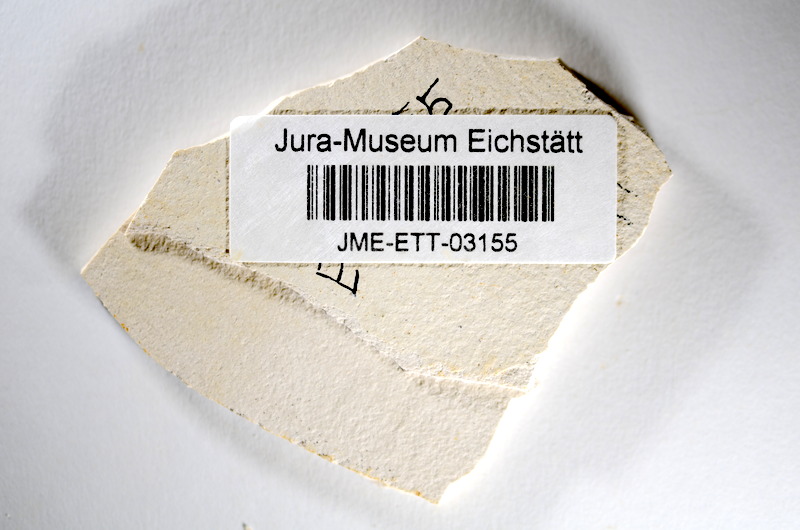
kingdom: Animalia
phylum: Chordata
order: Salmoniformes
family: Orthogonikleithridae
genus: Orthogonikleithrus
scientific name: Orthogonikleithrus hoelli
